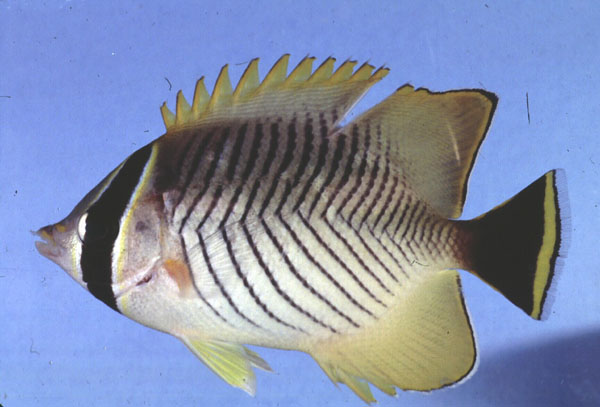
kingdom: Animalia
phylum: Chordata
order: Perciformes
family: Chaetodontidae
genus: Chaetodon
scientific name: Chaetodon trifascialis
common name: Chevroned butterflyfish
